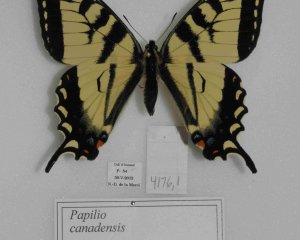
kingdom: Animalia
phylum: Arthropoda
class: Insecta
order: Lepidoptera
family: Papilionidae
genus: Pterourus
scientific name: Pterourus canadensis
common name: Canadian Tiger Swallowtail
